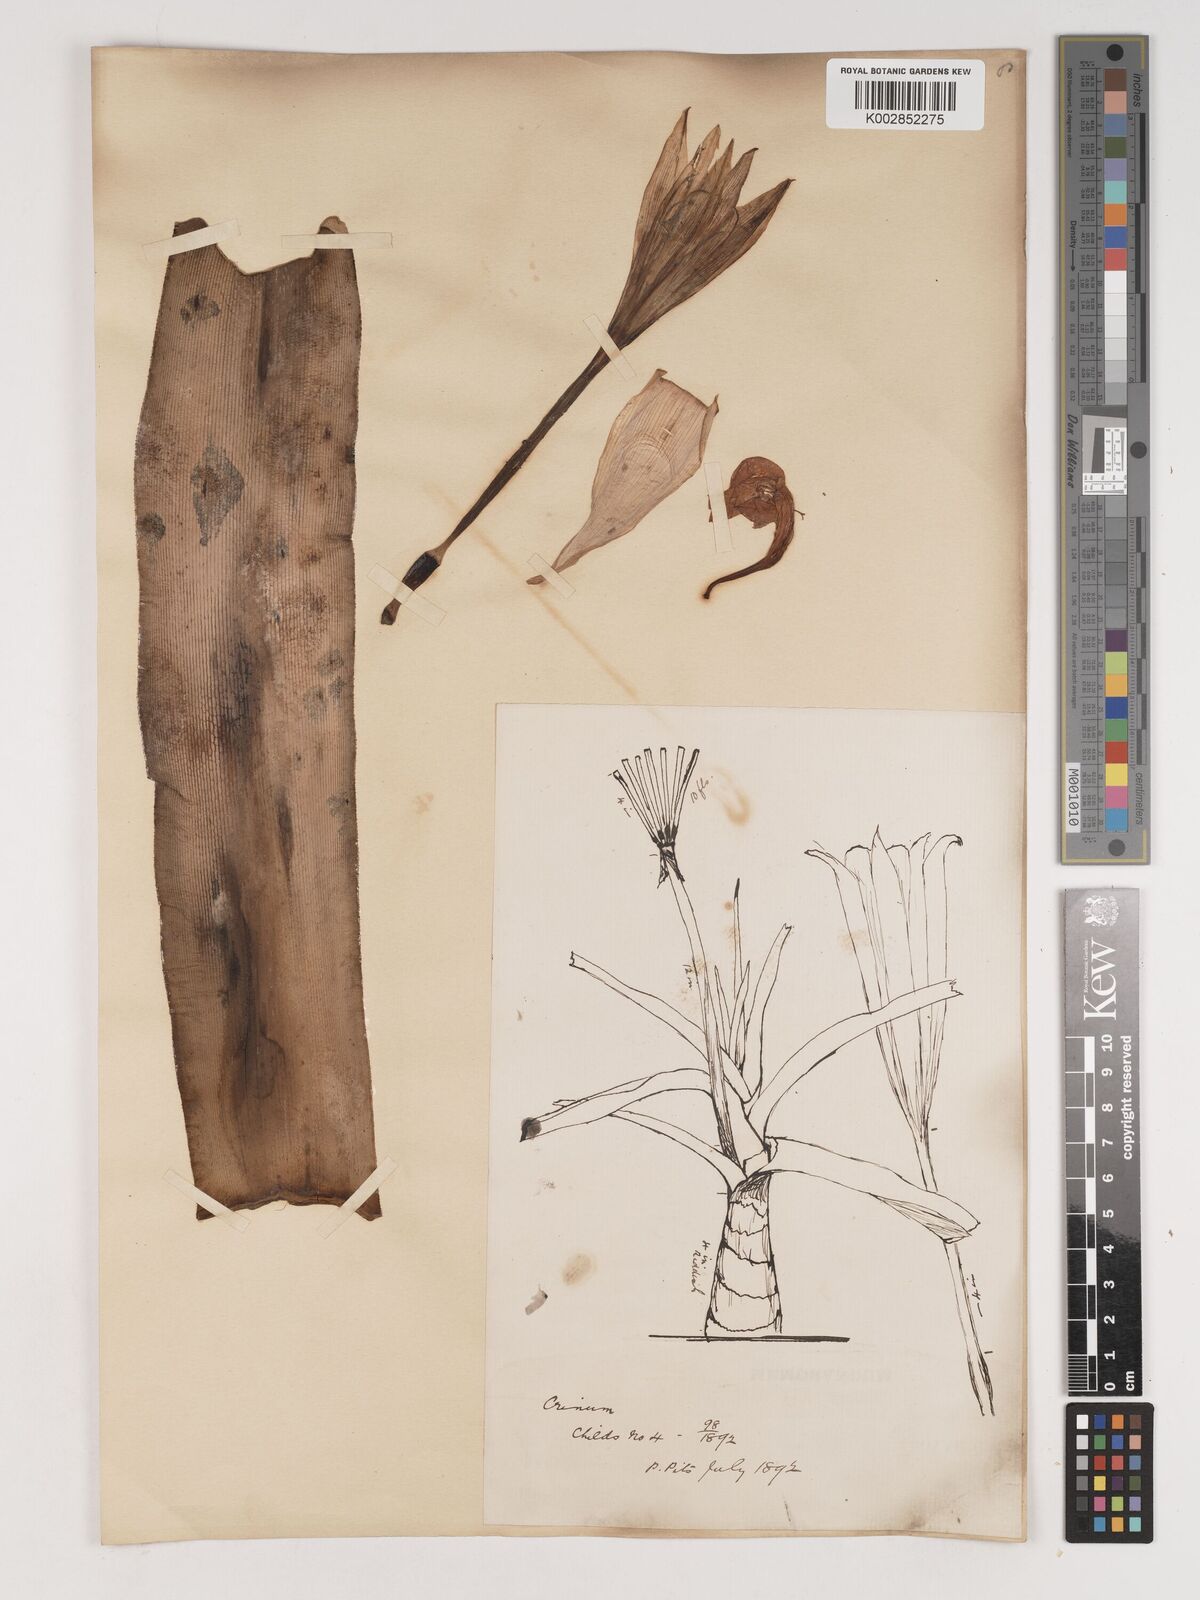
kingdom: Plantae
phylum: Tracheophyta
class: Liliopsida
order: Asparagales
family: Amaryllidaceae
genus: Crinum
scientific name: Crinum
